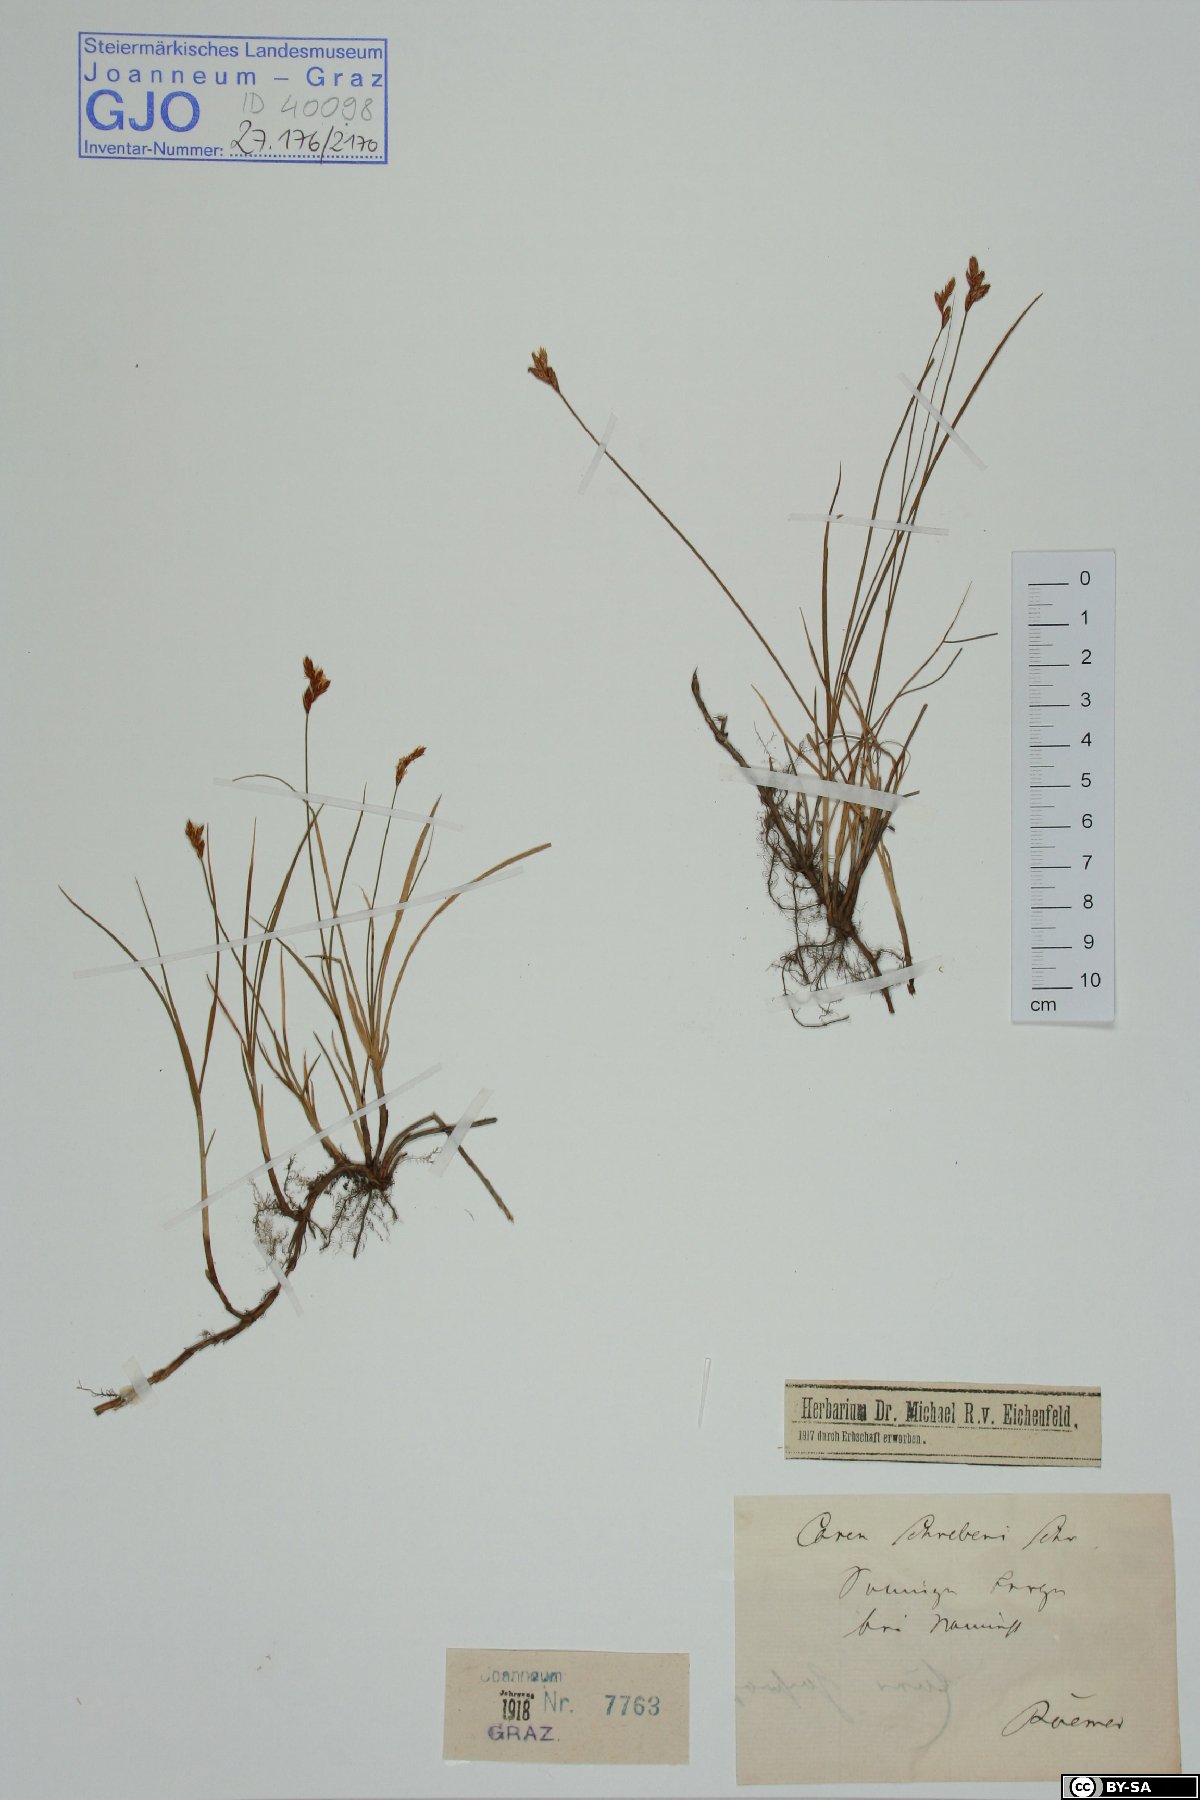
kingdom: Plantae
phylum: Tracheophyta
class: Liliopsida
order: Poales
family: Cyperaceae
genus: Carex
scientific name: Carex praecox
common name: Early sedge
